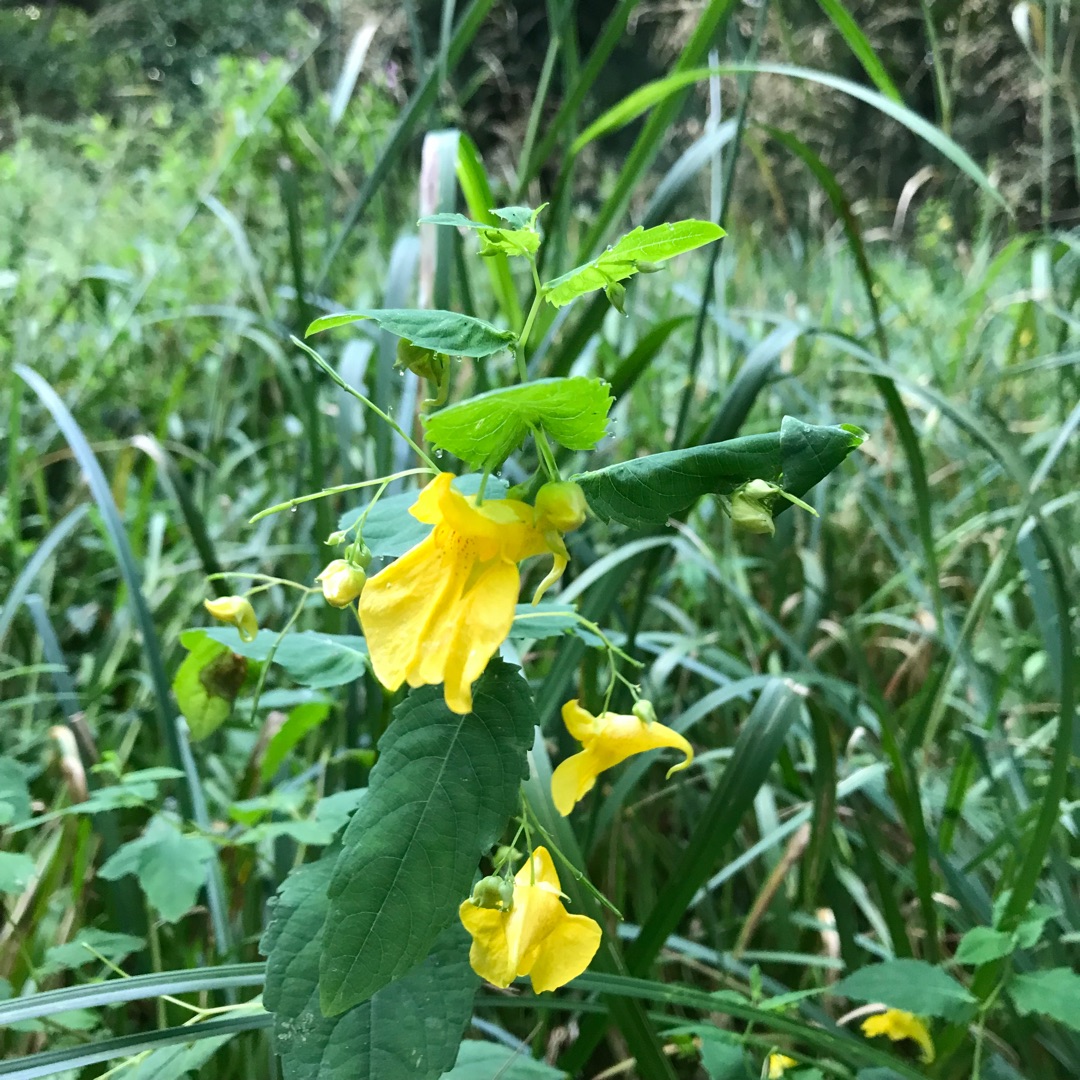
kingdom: Plantae
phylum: Tracheophyta
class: Magnoliopsida
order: Ericales
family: Balsaminaceae
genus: Impatiens
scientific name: Impatiens noli-tangere
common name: Spring-balsamin
